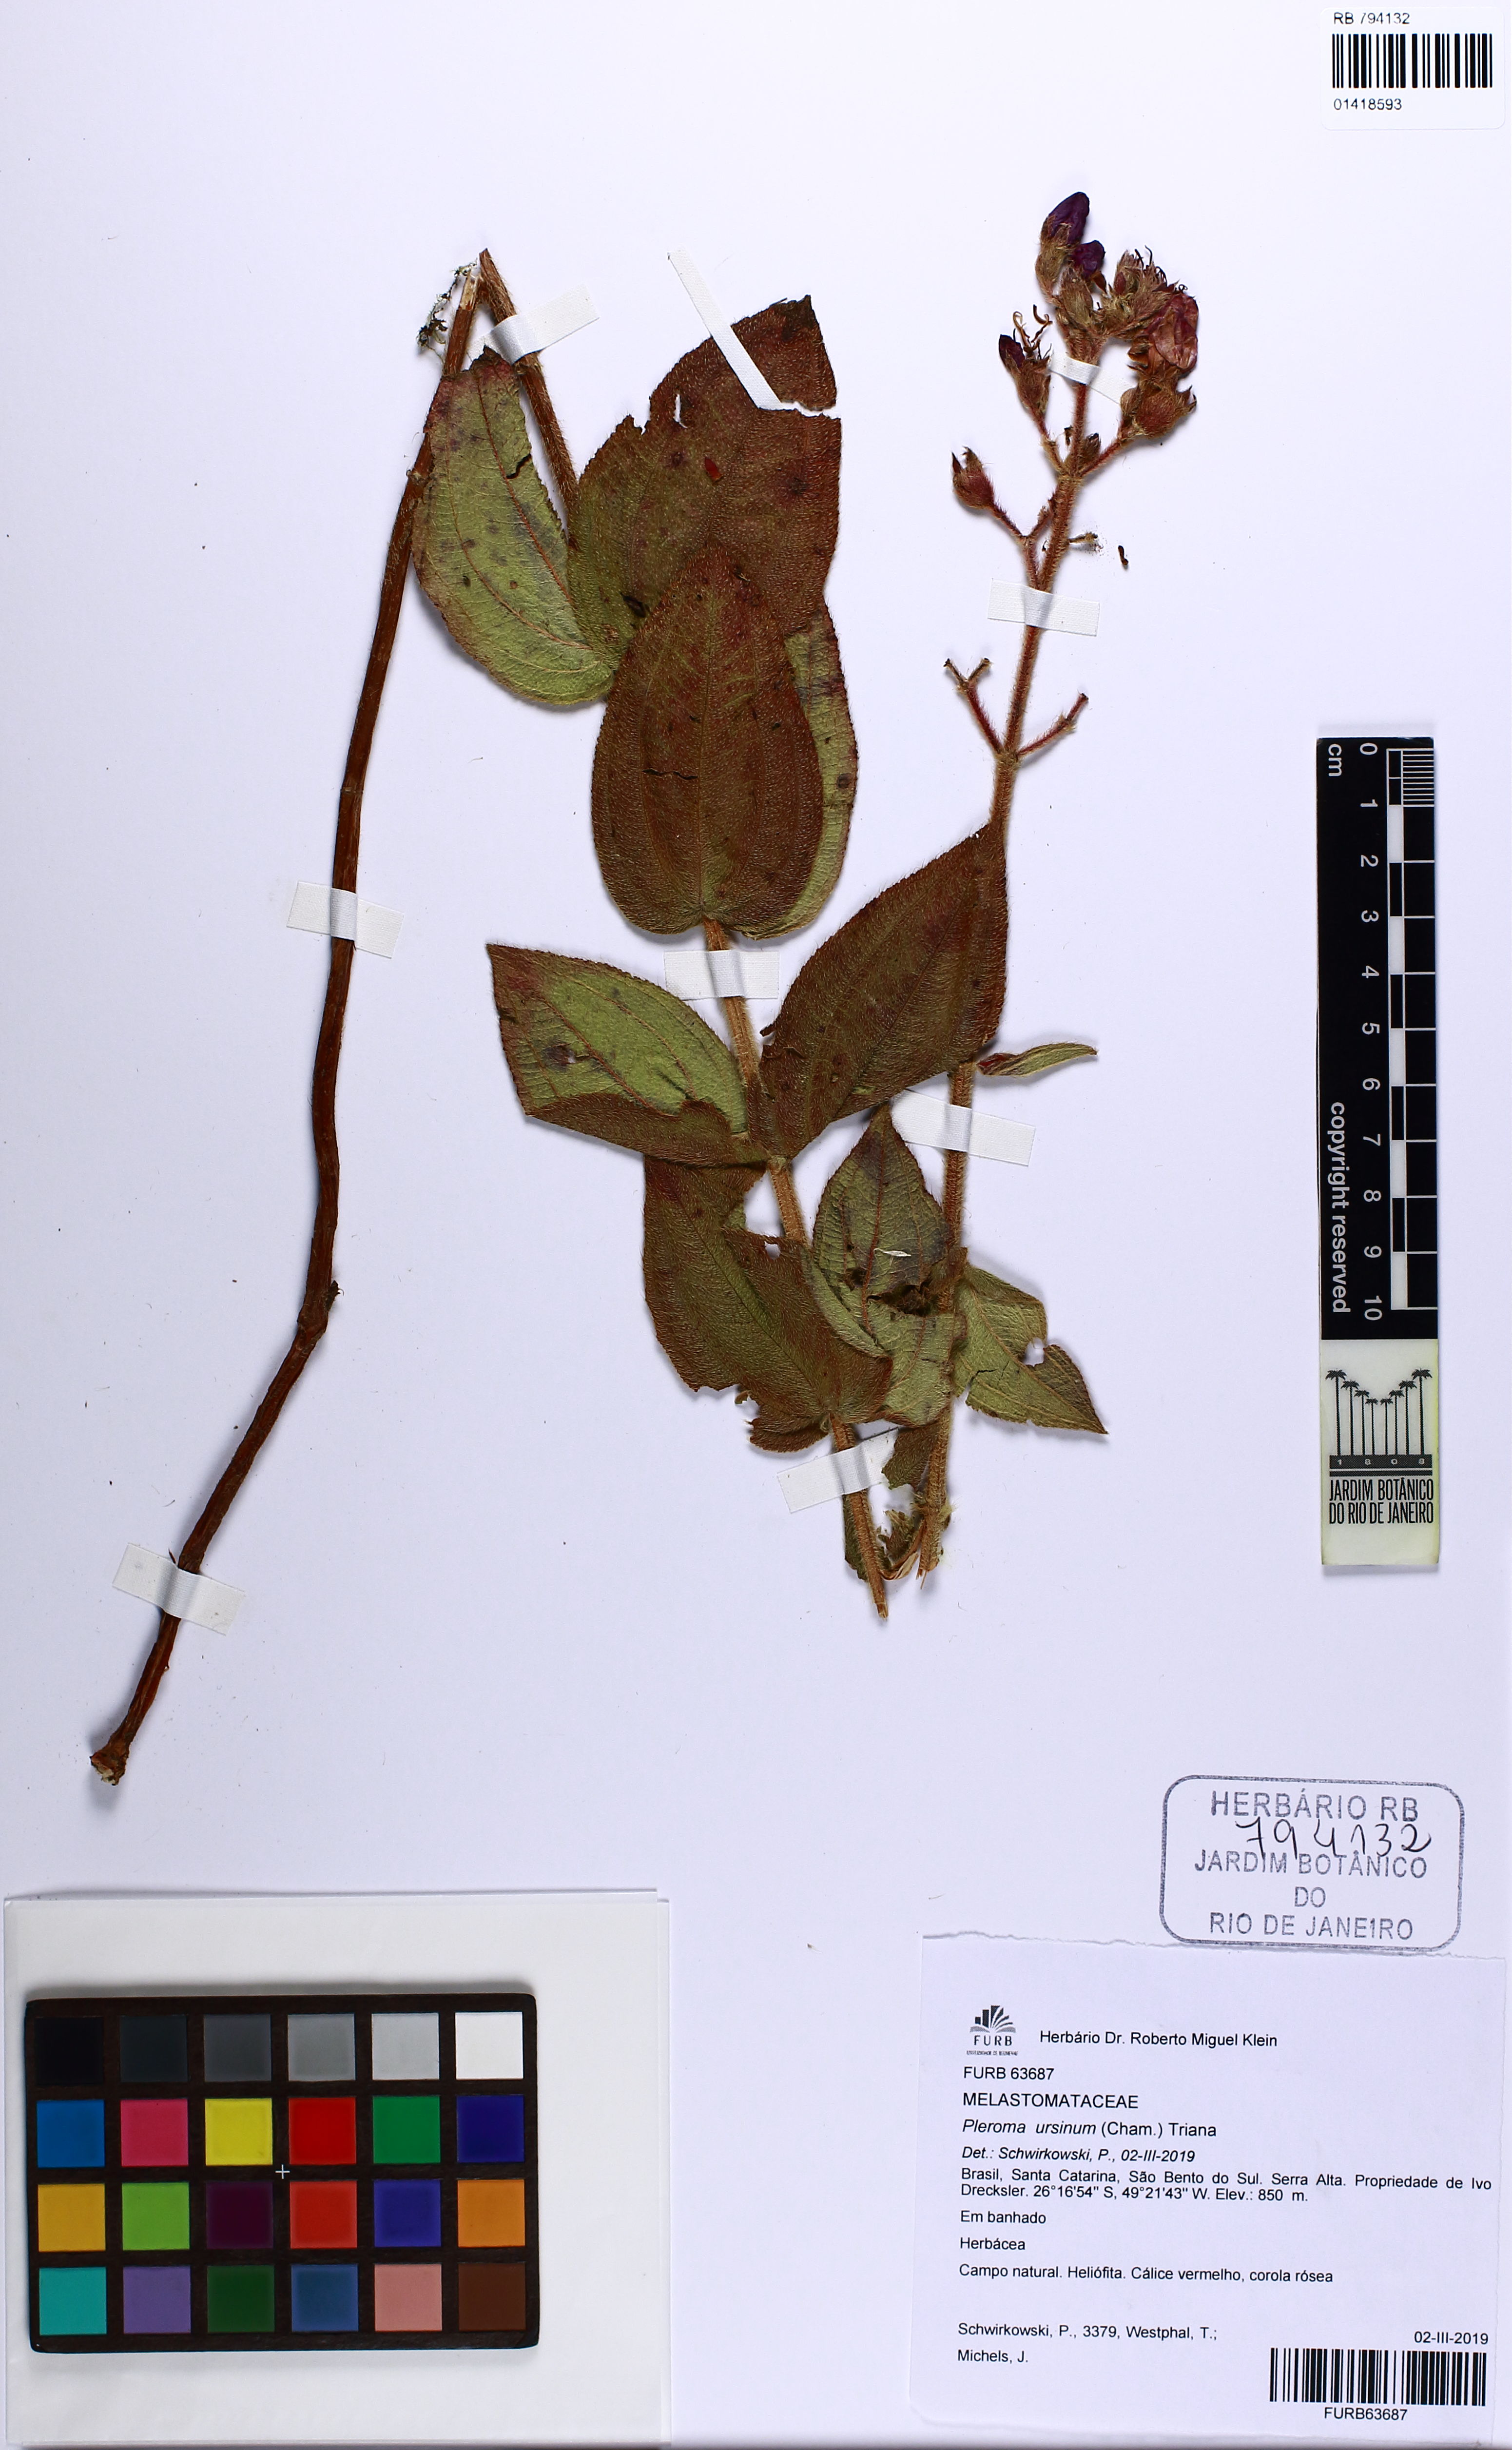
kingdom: Plantae
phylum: Tracheophyta
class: Magnoliopsida
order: Myrtales
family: Melastomataceae
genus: Pleroma
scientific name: Pleroma ursinum
